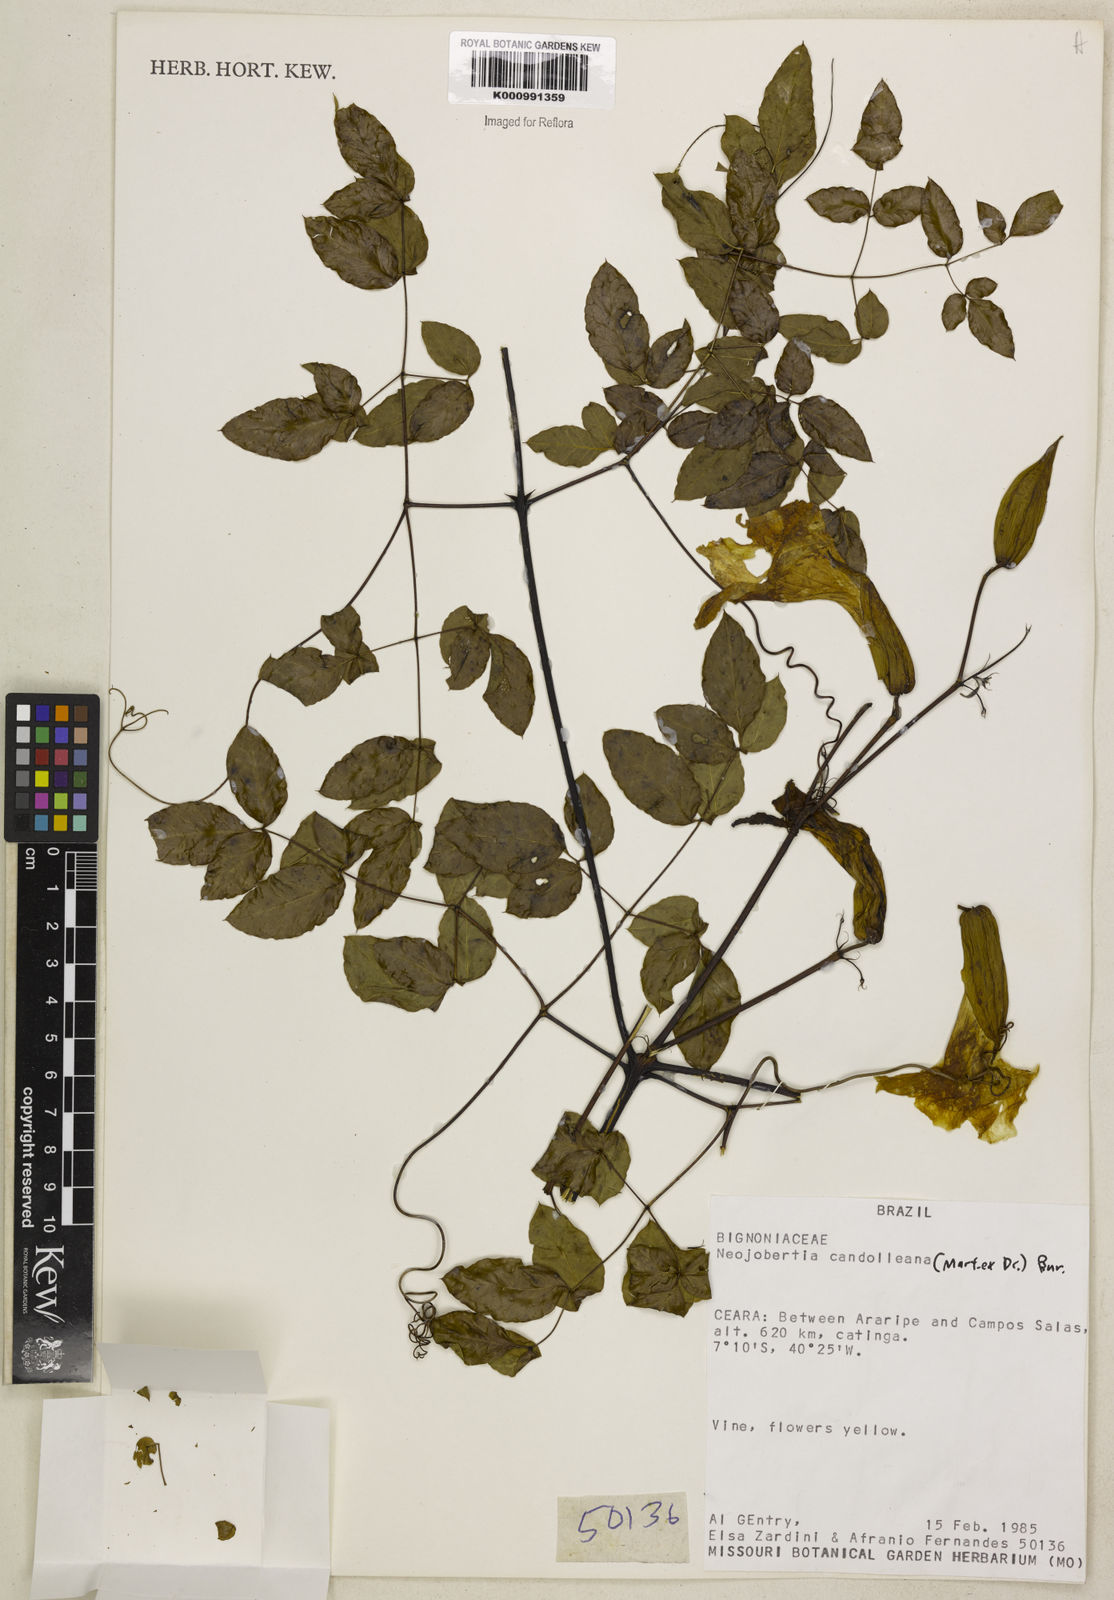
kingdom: Plantae
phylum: Tracheophyta
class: Magnoliopsida
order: Lamiales
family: Bignoniaceae
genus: Adenocalymma
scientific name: Adenocalymma candolleanum
